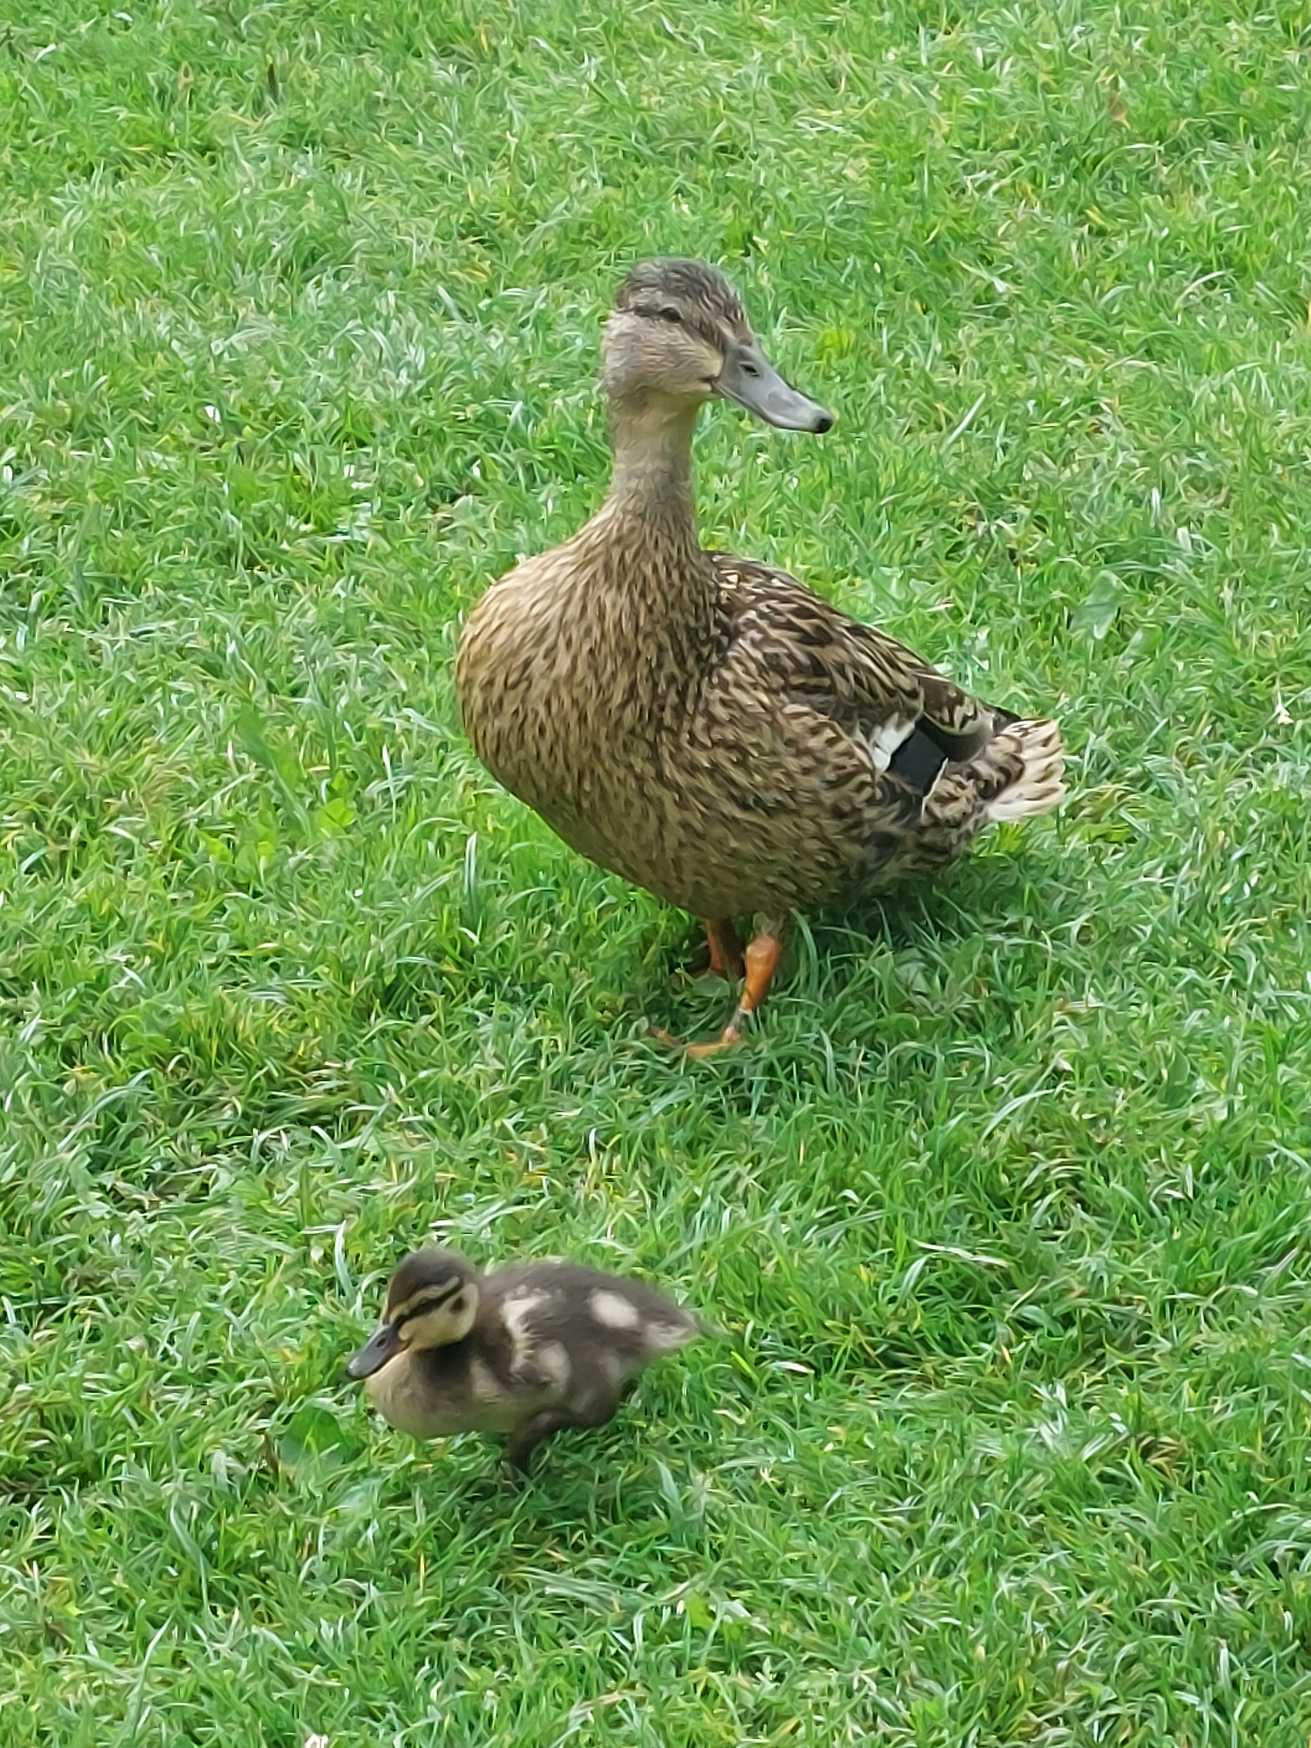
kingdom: Animalia
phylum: Chordata
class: Aves
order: Anseriformes
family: Anatidae
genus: Anas
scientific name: Anas platyrhynchos
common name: Gråand
